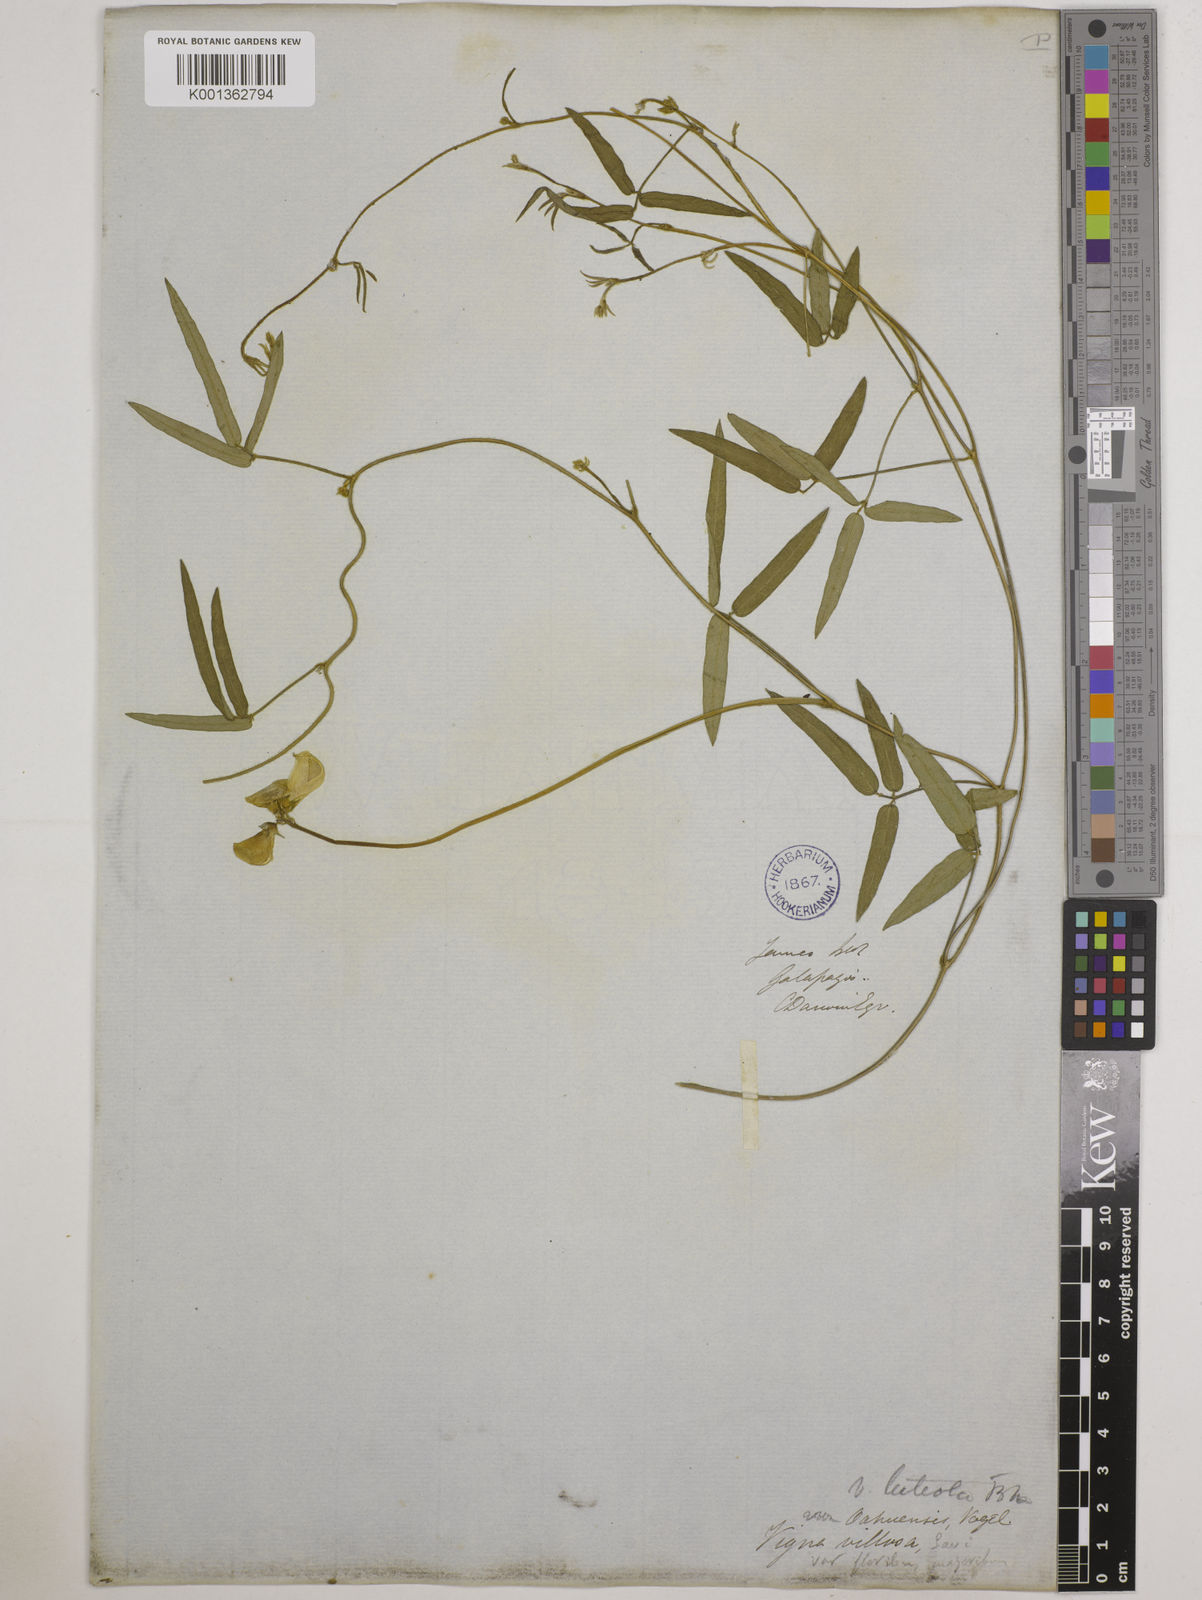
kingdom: Plantae
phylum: Tracheophyta
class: Magnoliopsida
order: Fabales
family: Fabaceae
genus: Vigna
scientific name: Vigna luteola
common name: Hairypod cowpea
